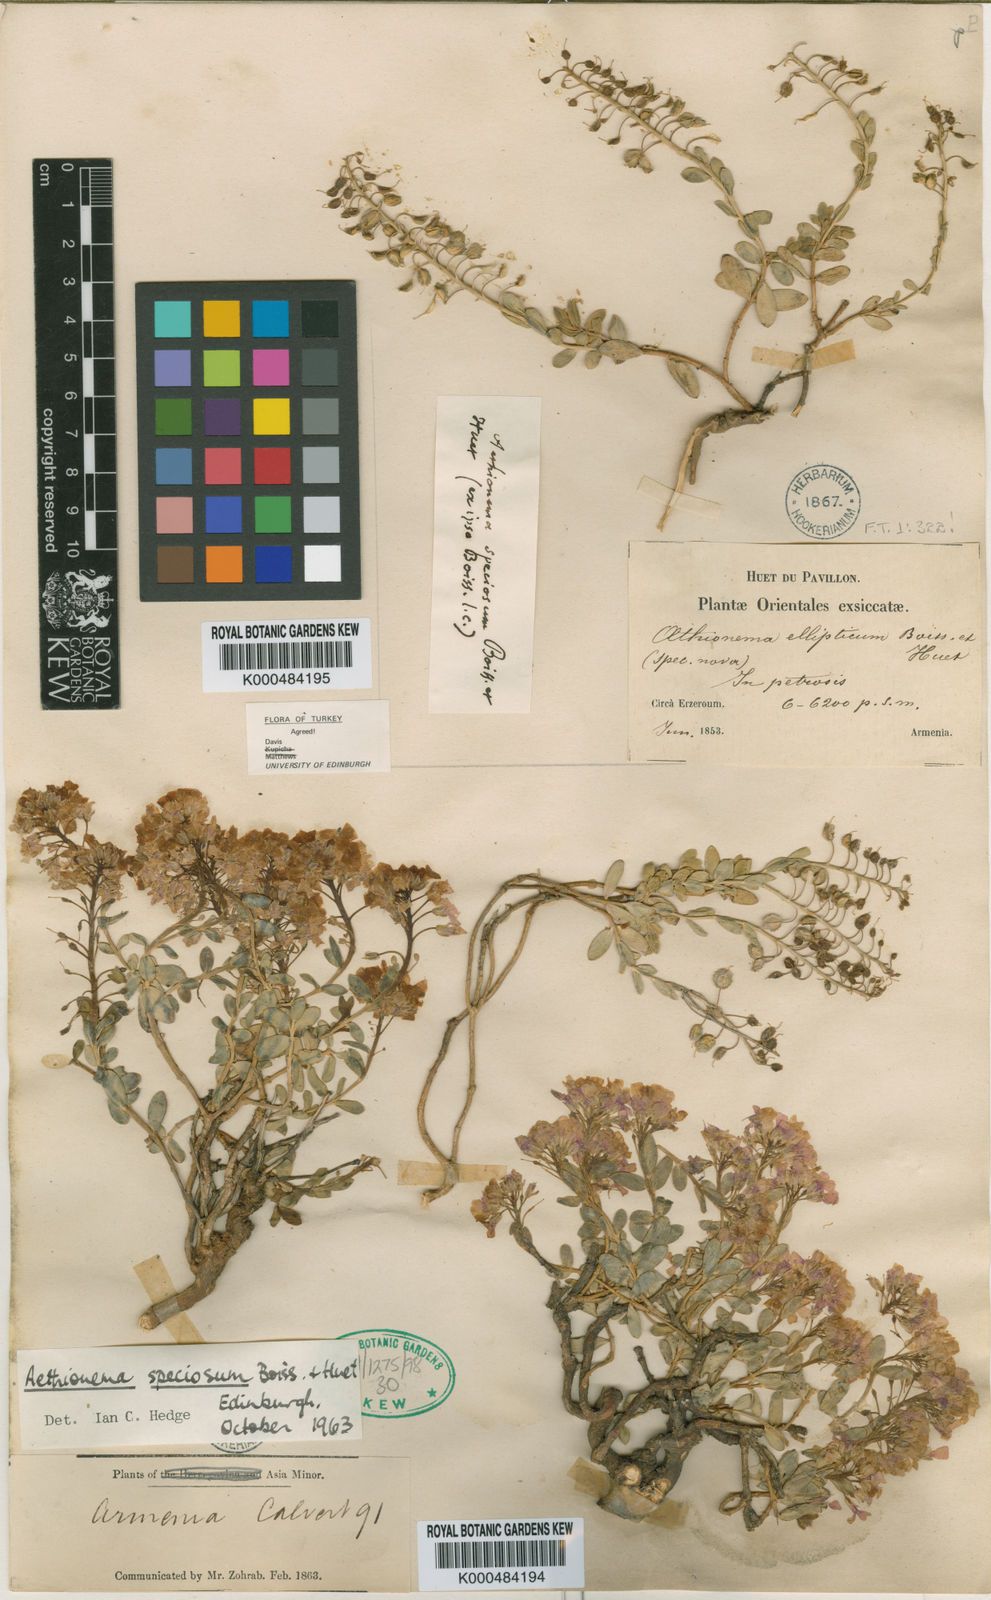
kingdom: Plantae
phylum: Tracheophyta
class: Magnoliopsida
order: Brassicales
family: Brassicaceae
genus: Aethionema
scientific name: Aethionema speciosum
